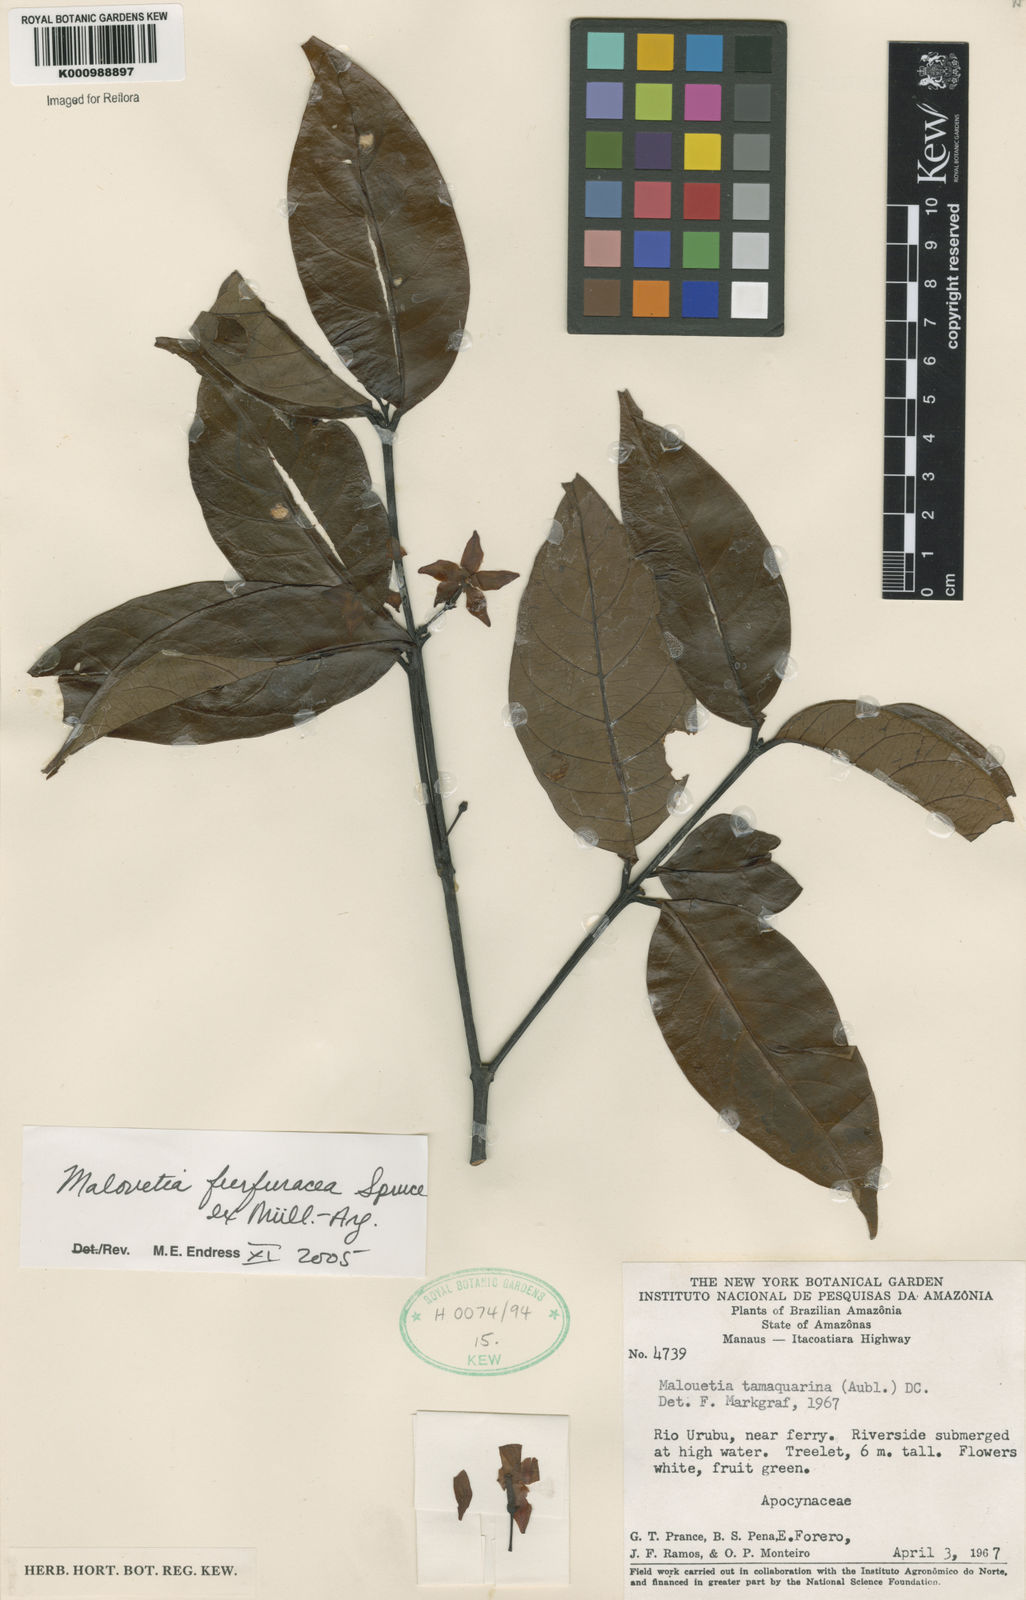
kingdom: Plantae
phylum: Tracheophyta
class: Magnoliopsida
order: Gentianales
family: Apocynaceae
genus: Malouetia
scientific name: Malouetia
